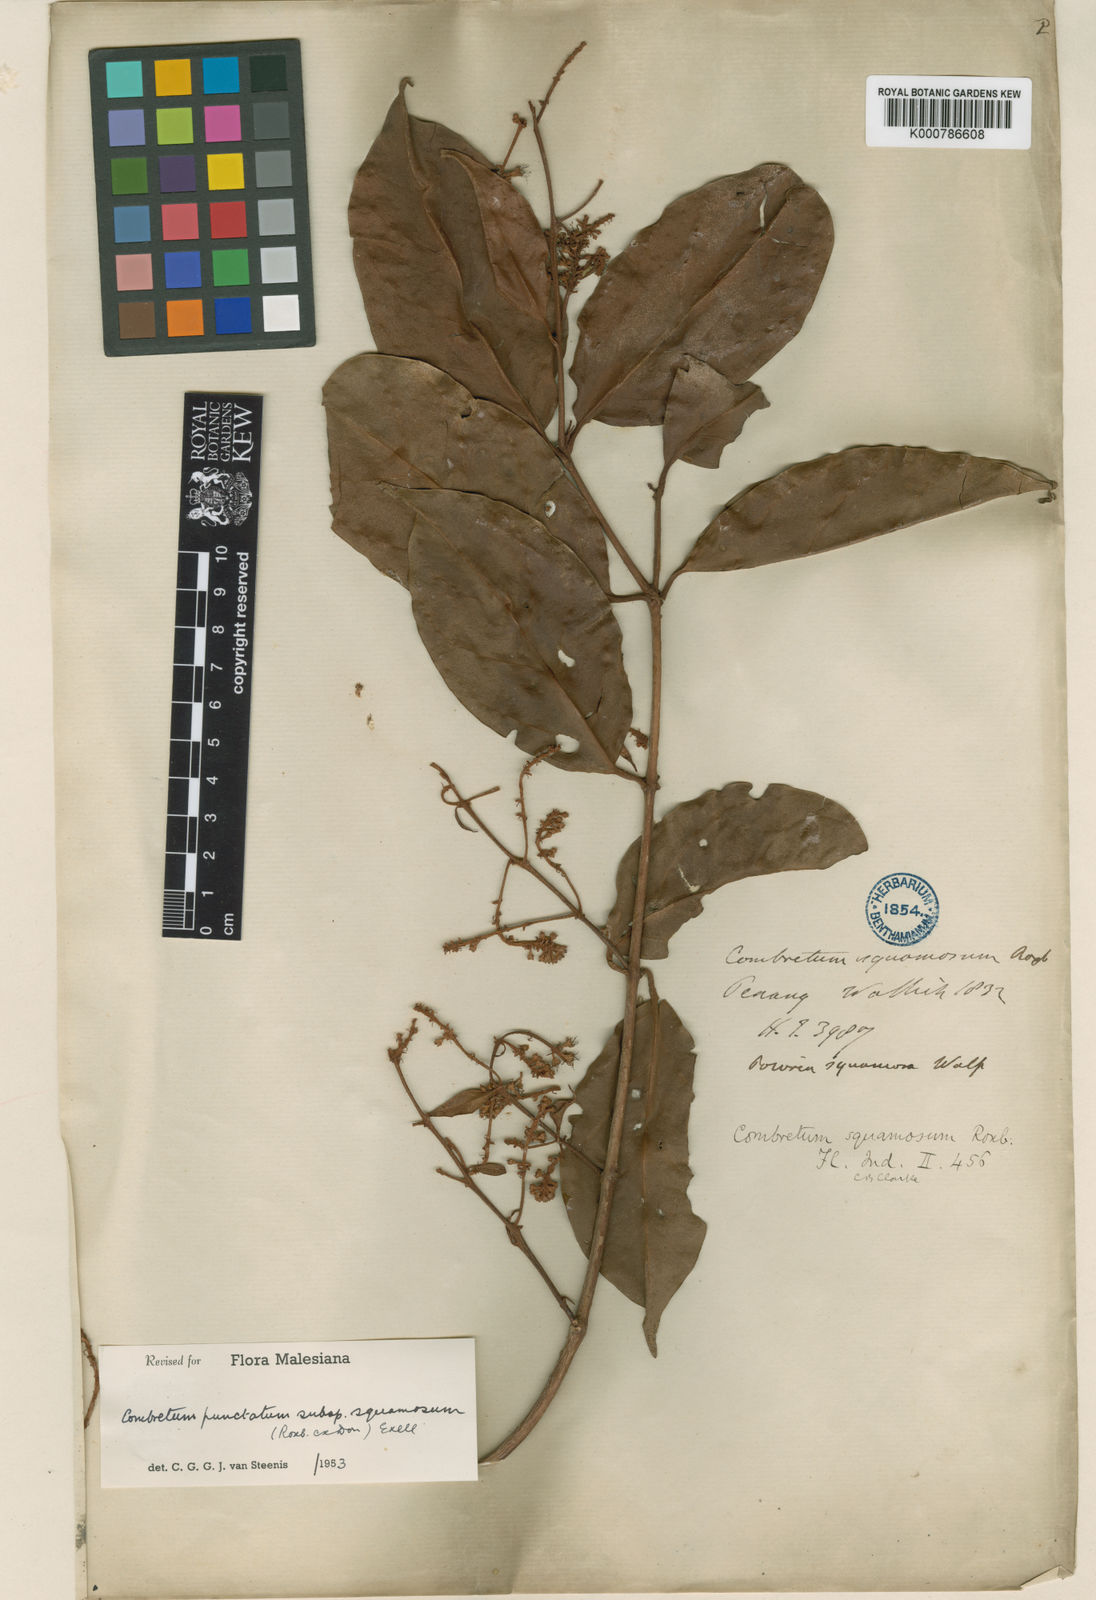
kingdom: Plantae
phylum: Tracheophyta
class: Magnoliopsida
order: Myrtales
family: Combretaceae
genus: Combretum
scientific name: Combretum punctatum
